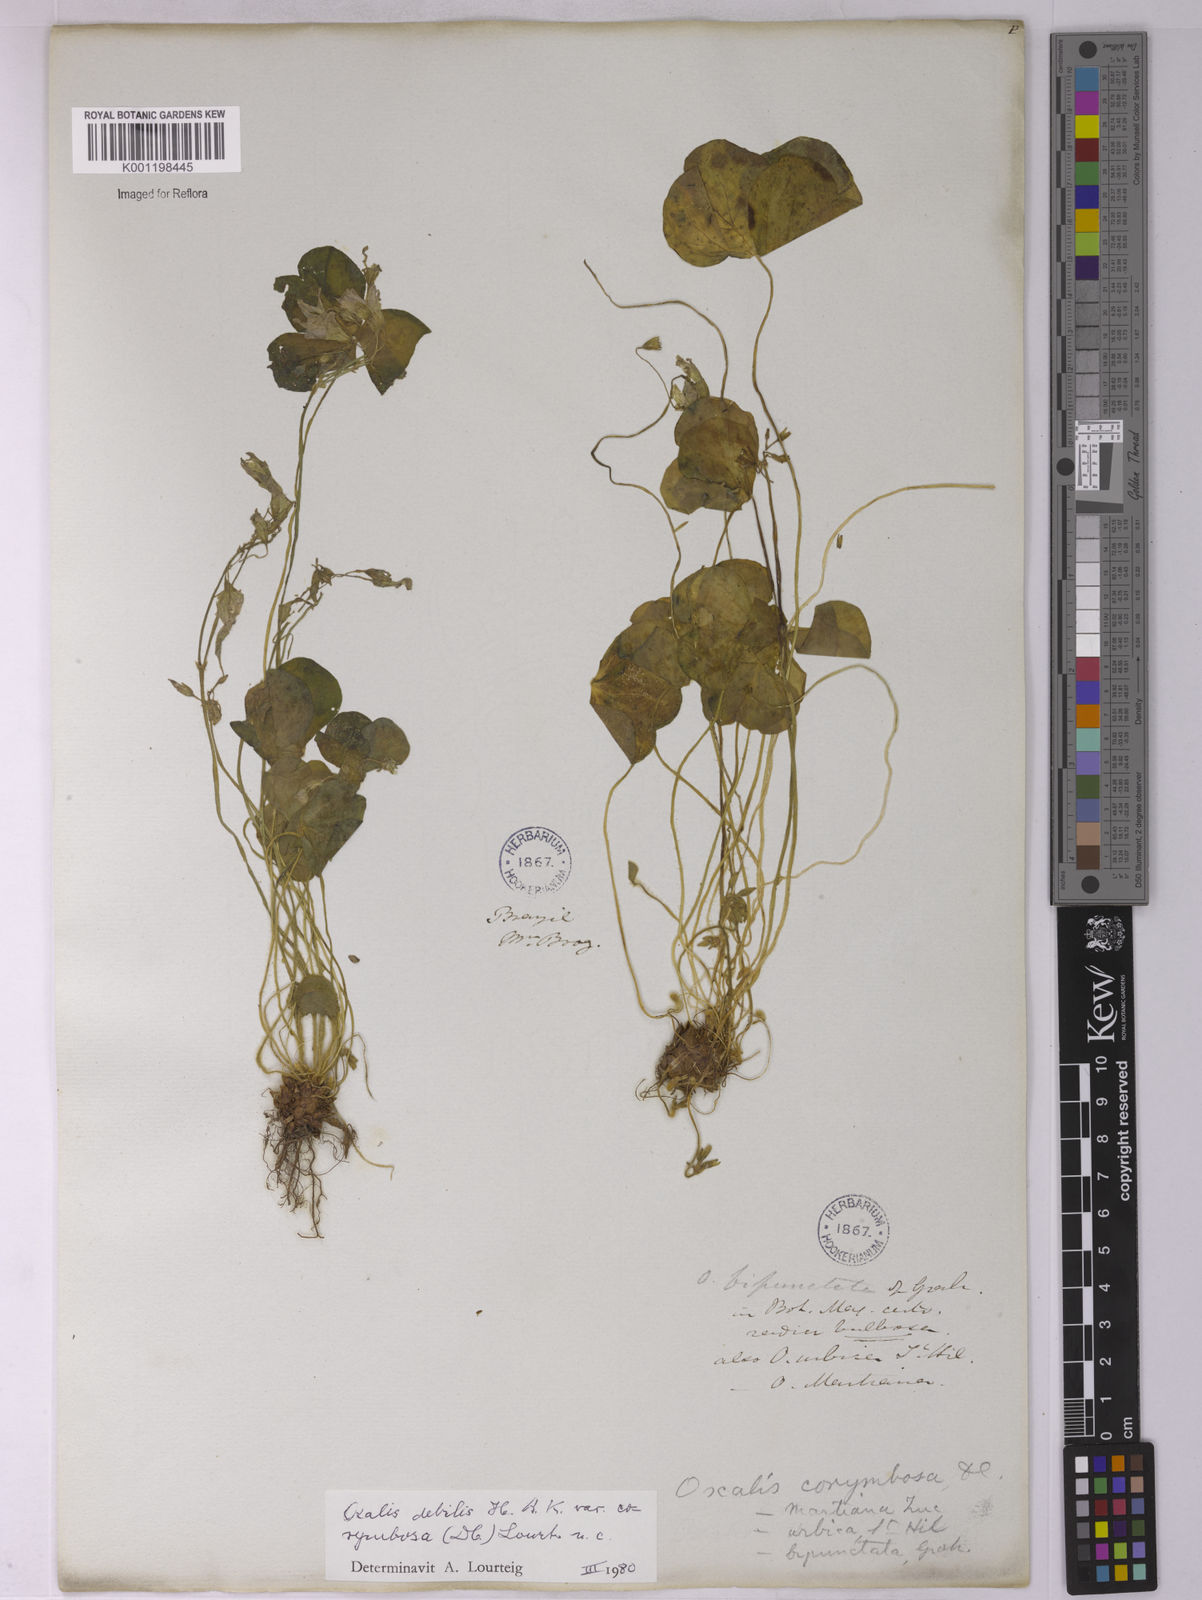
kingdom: Plantae
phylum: Tracheophyta
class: Magnoliopsida
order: Oxalidales
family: Oxalidaceae
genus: Oxalis
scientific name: Oxalis debilis
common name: Large-flowered pink-sorrel
